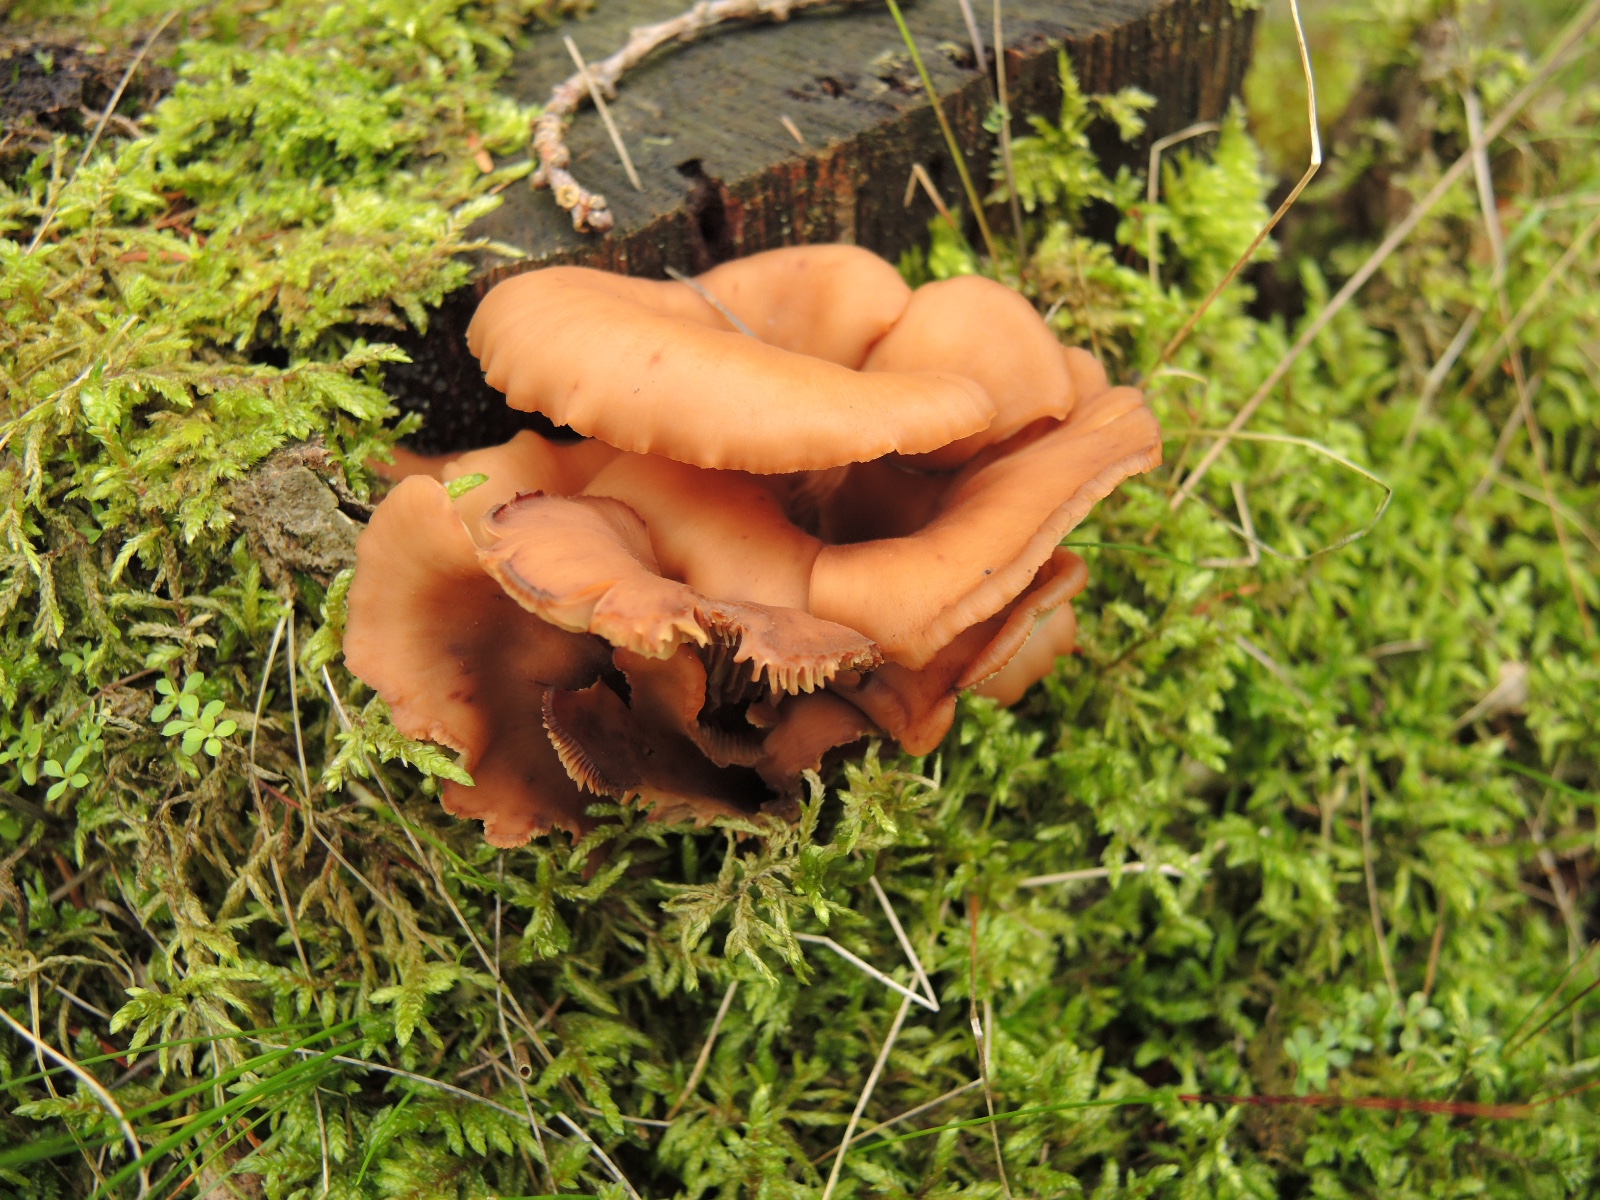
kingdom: Fungi
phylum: Basidiomycota
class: Agaricomycetes
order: Russulales
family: Auriscalpiaceae
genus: Lentinellus
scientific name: Lentinellus cochleatus
